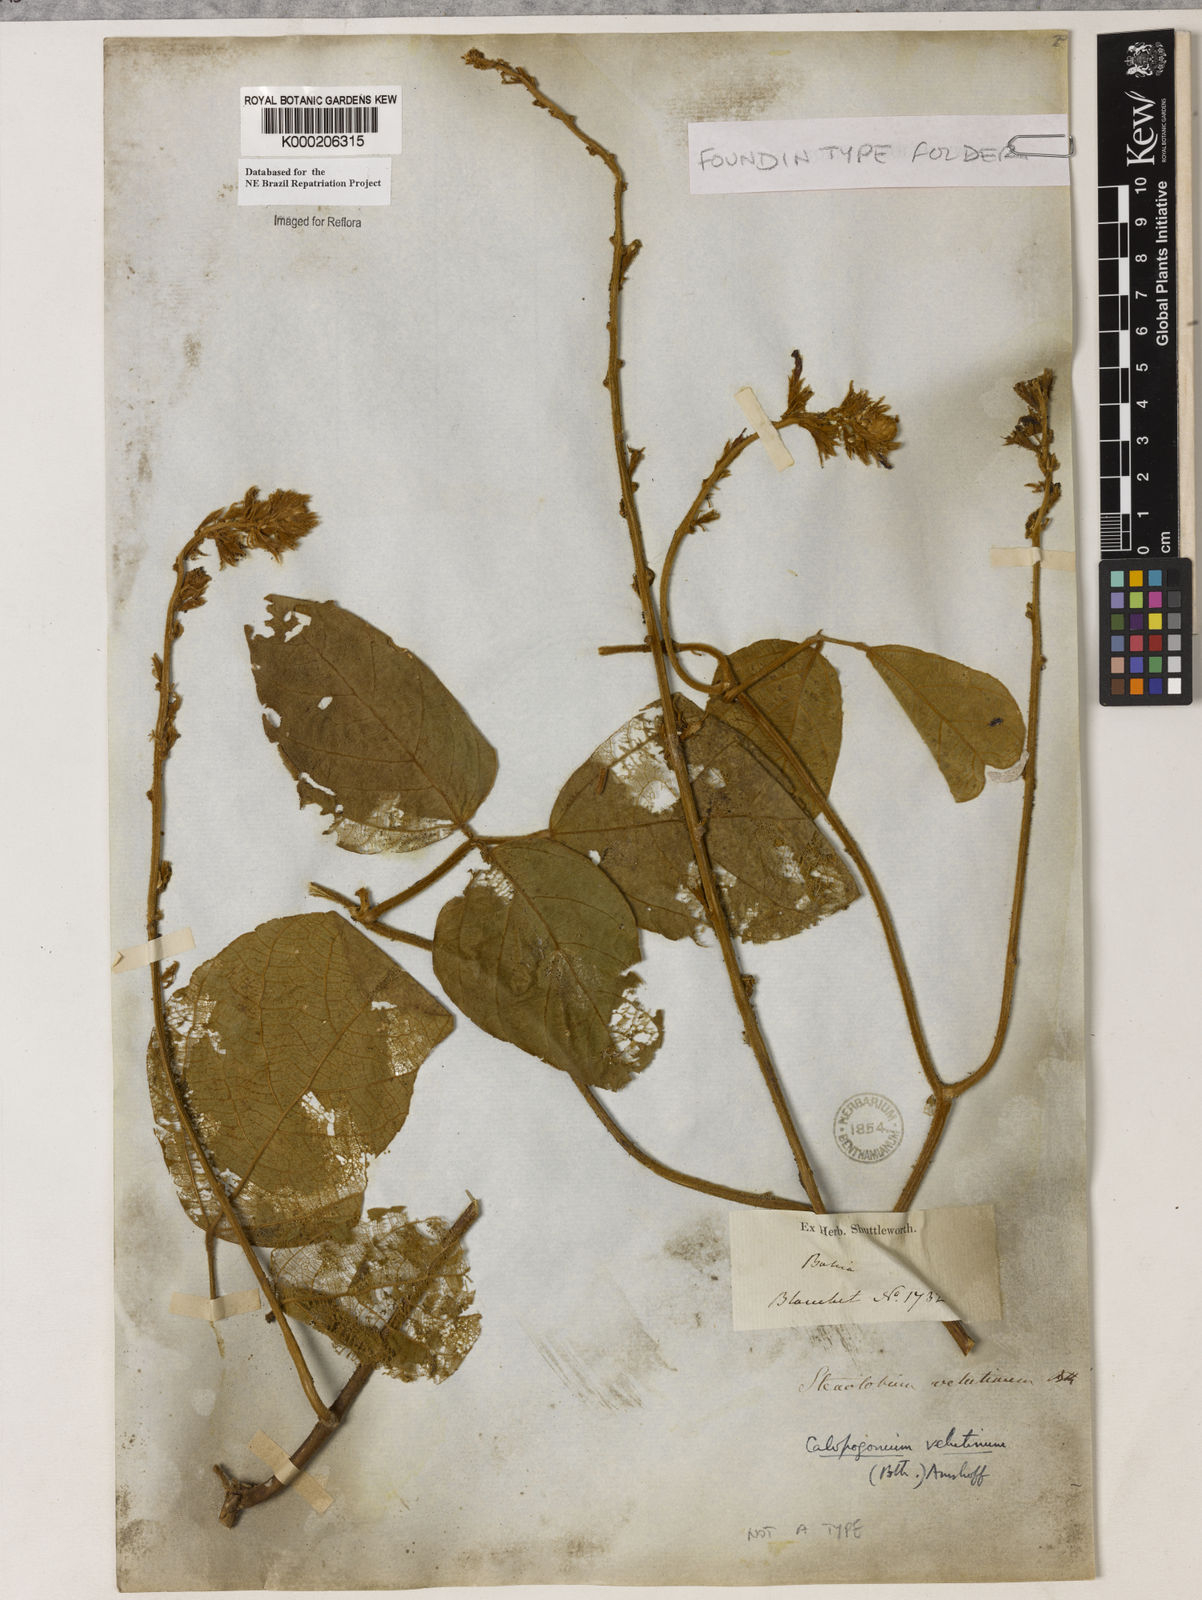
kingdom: Plantae
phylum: Tracheophyta
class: Magnoliopsida
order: Fabales
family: Fabaceae
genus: Calopogonium
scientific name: Calopogonium velutinum
